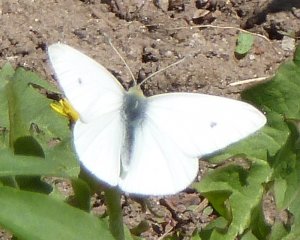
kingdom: Animalia
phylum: Arthropoda
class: Insecta
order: Lepidoptera
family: Pieridae
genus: Pieris
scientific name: Pieris rapae
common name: Cabbage White
